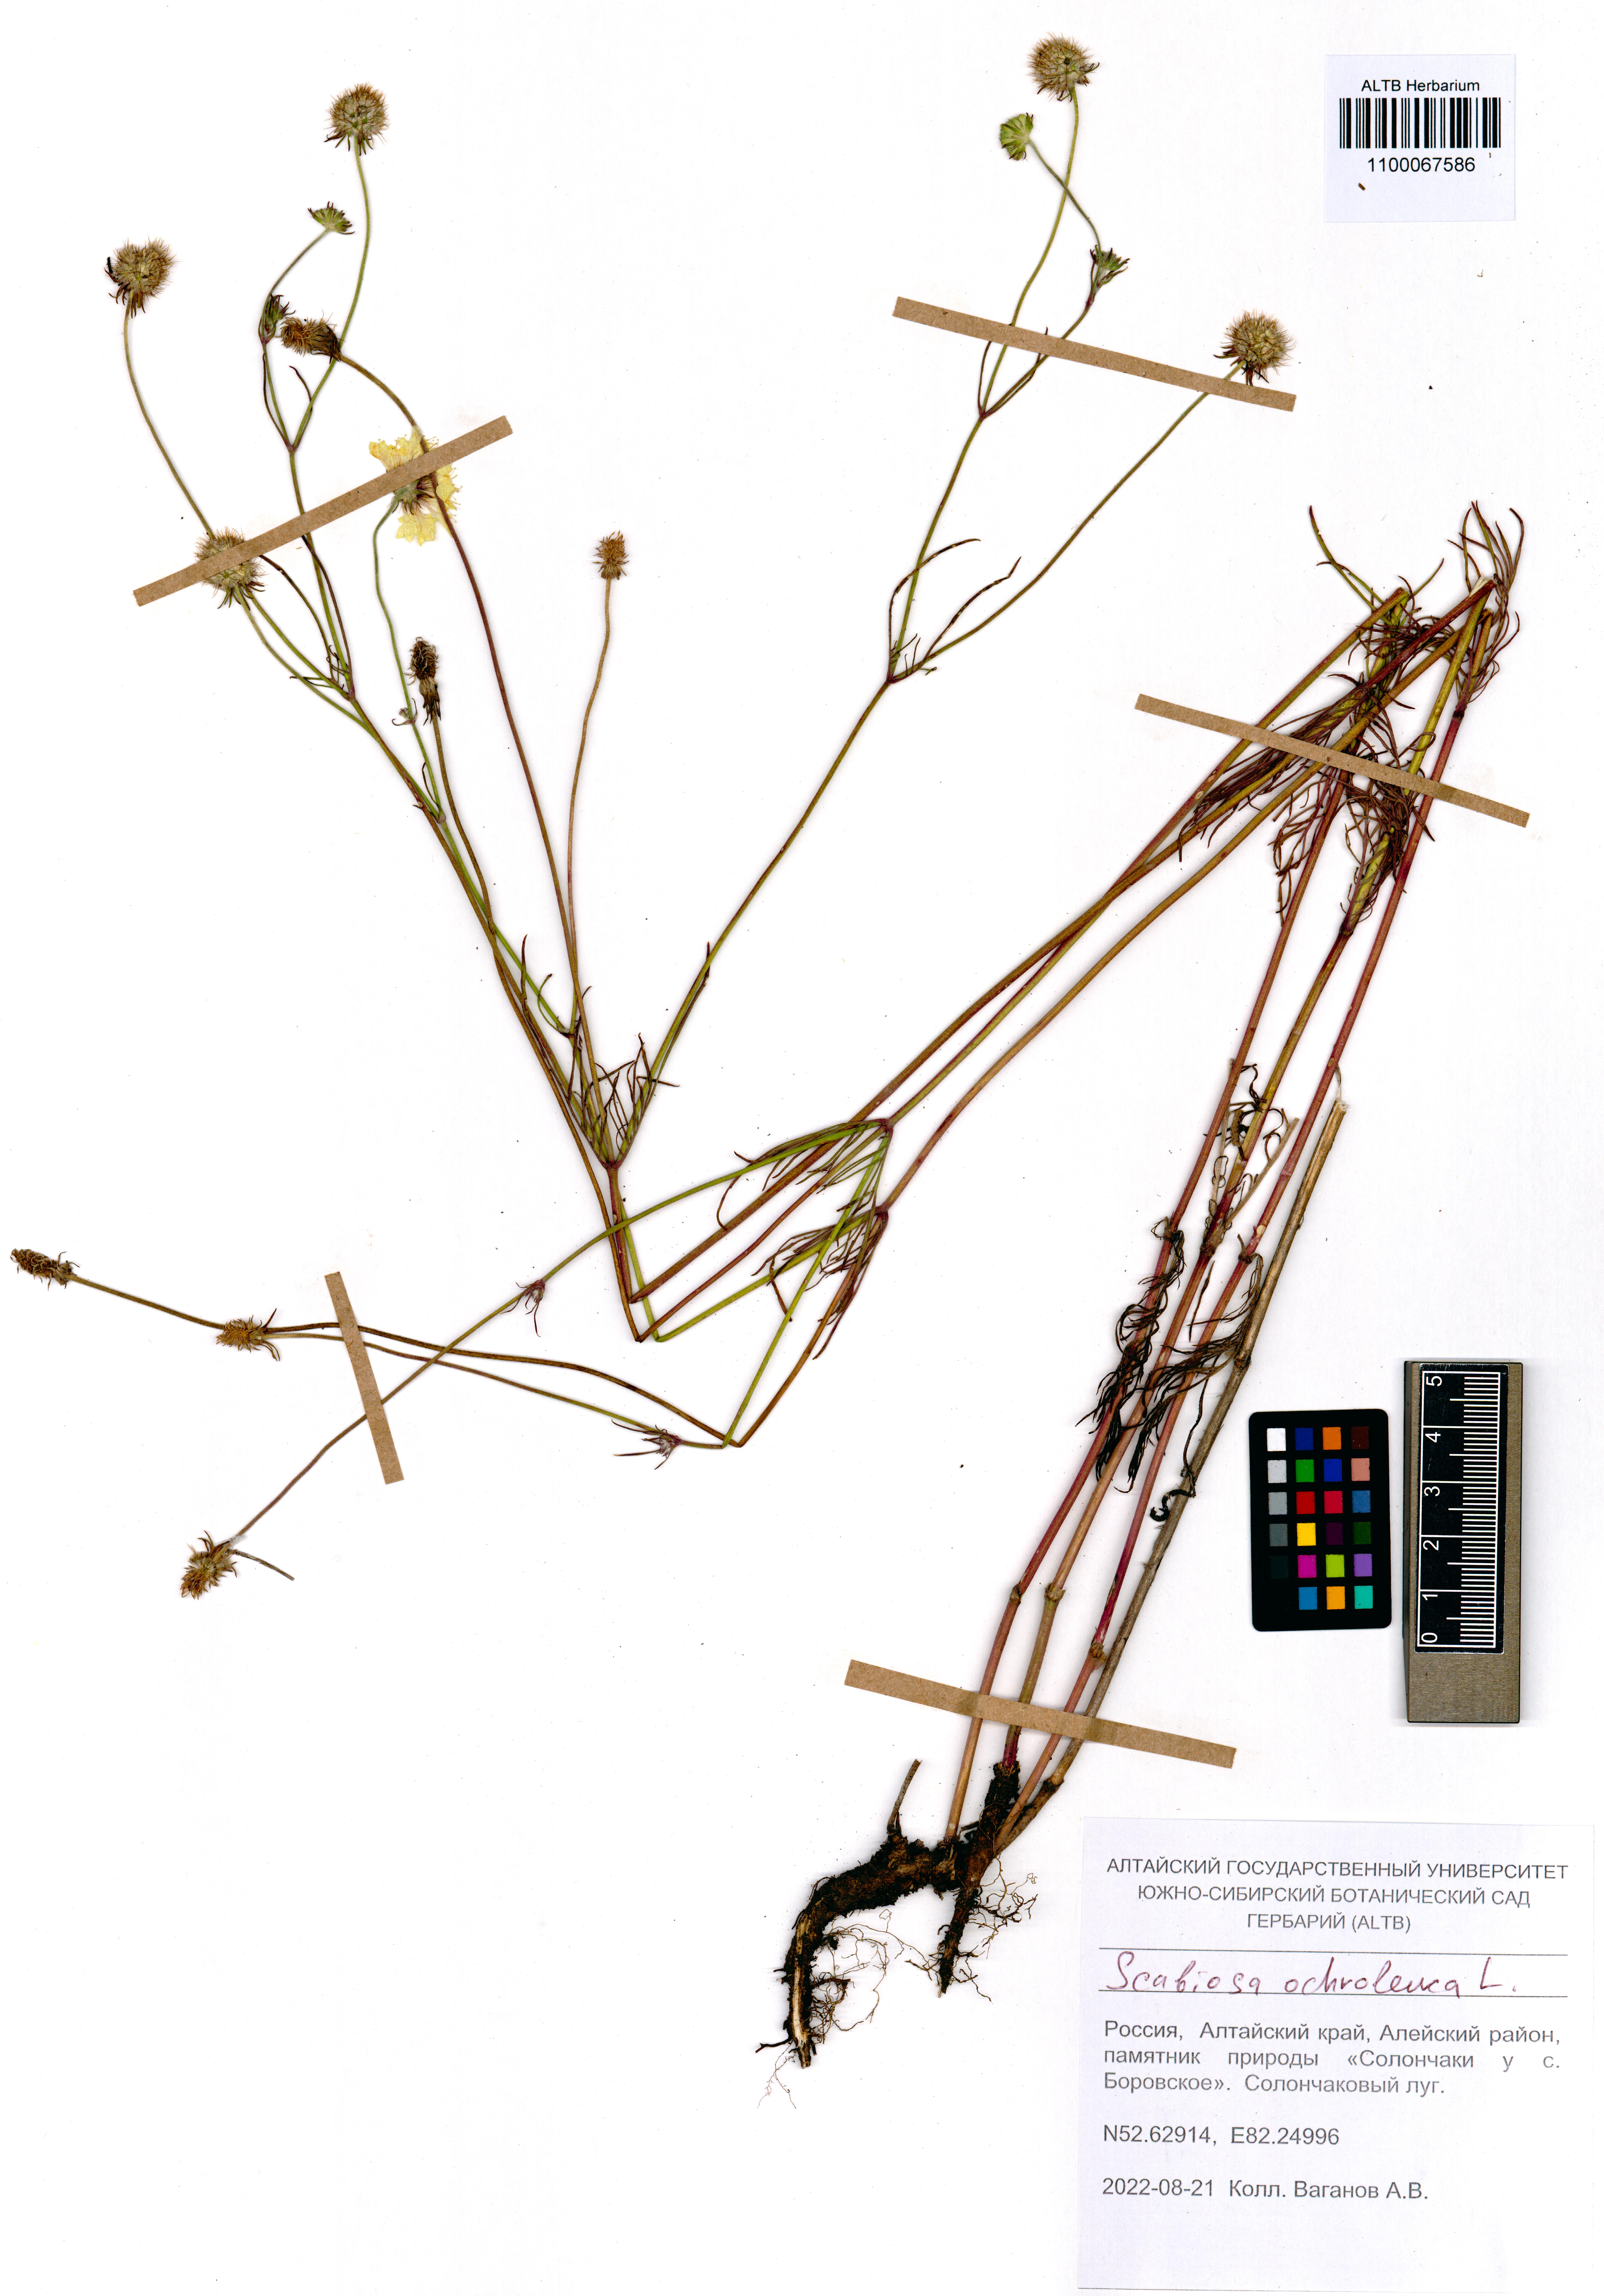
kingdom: Plantae
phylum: Tracheophyta
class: Magnoliopsida
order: Dipsacales
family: Caprifoliaceae
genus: Scabiosa
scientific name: Scabiosa ochroleuca
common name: Cream pincushions
